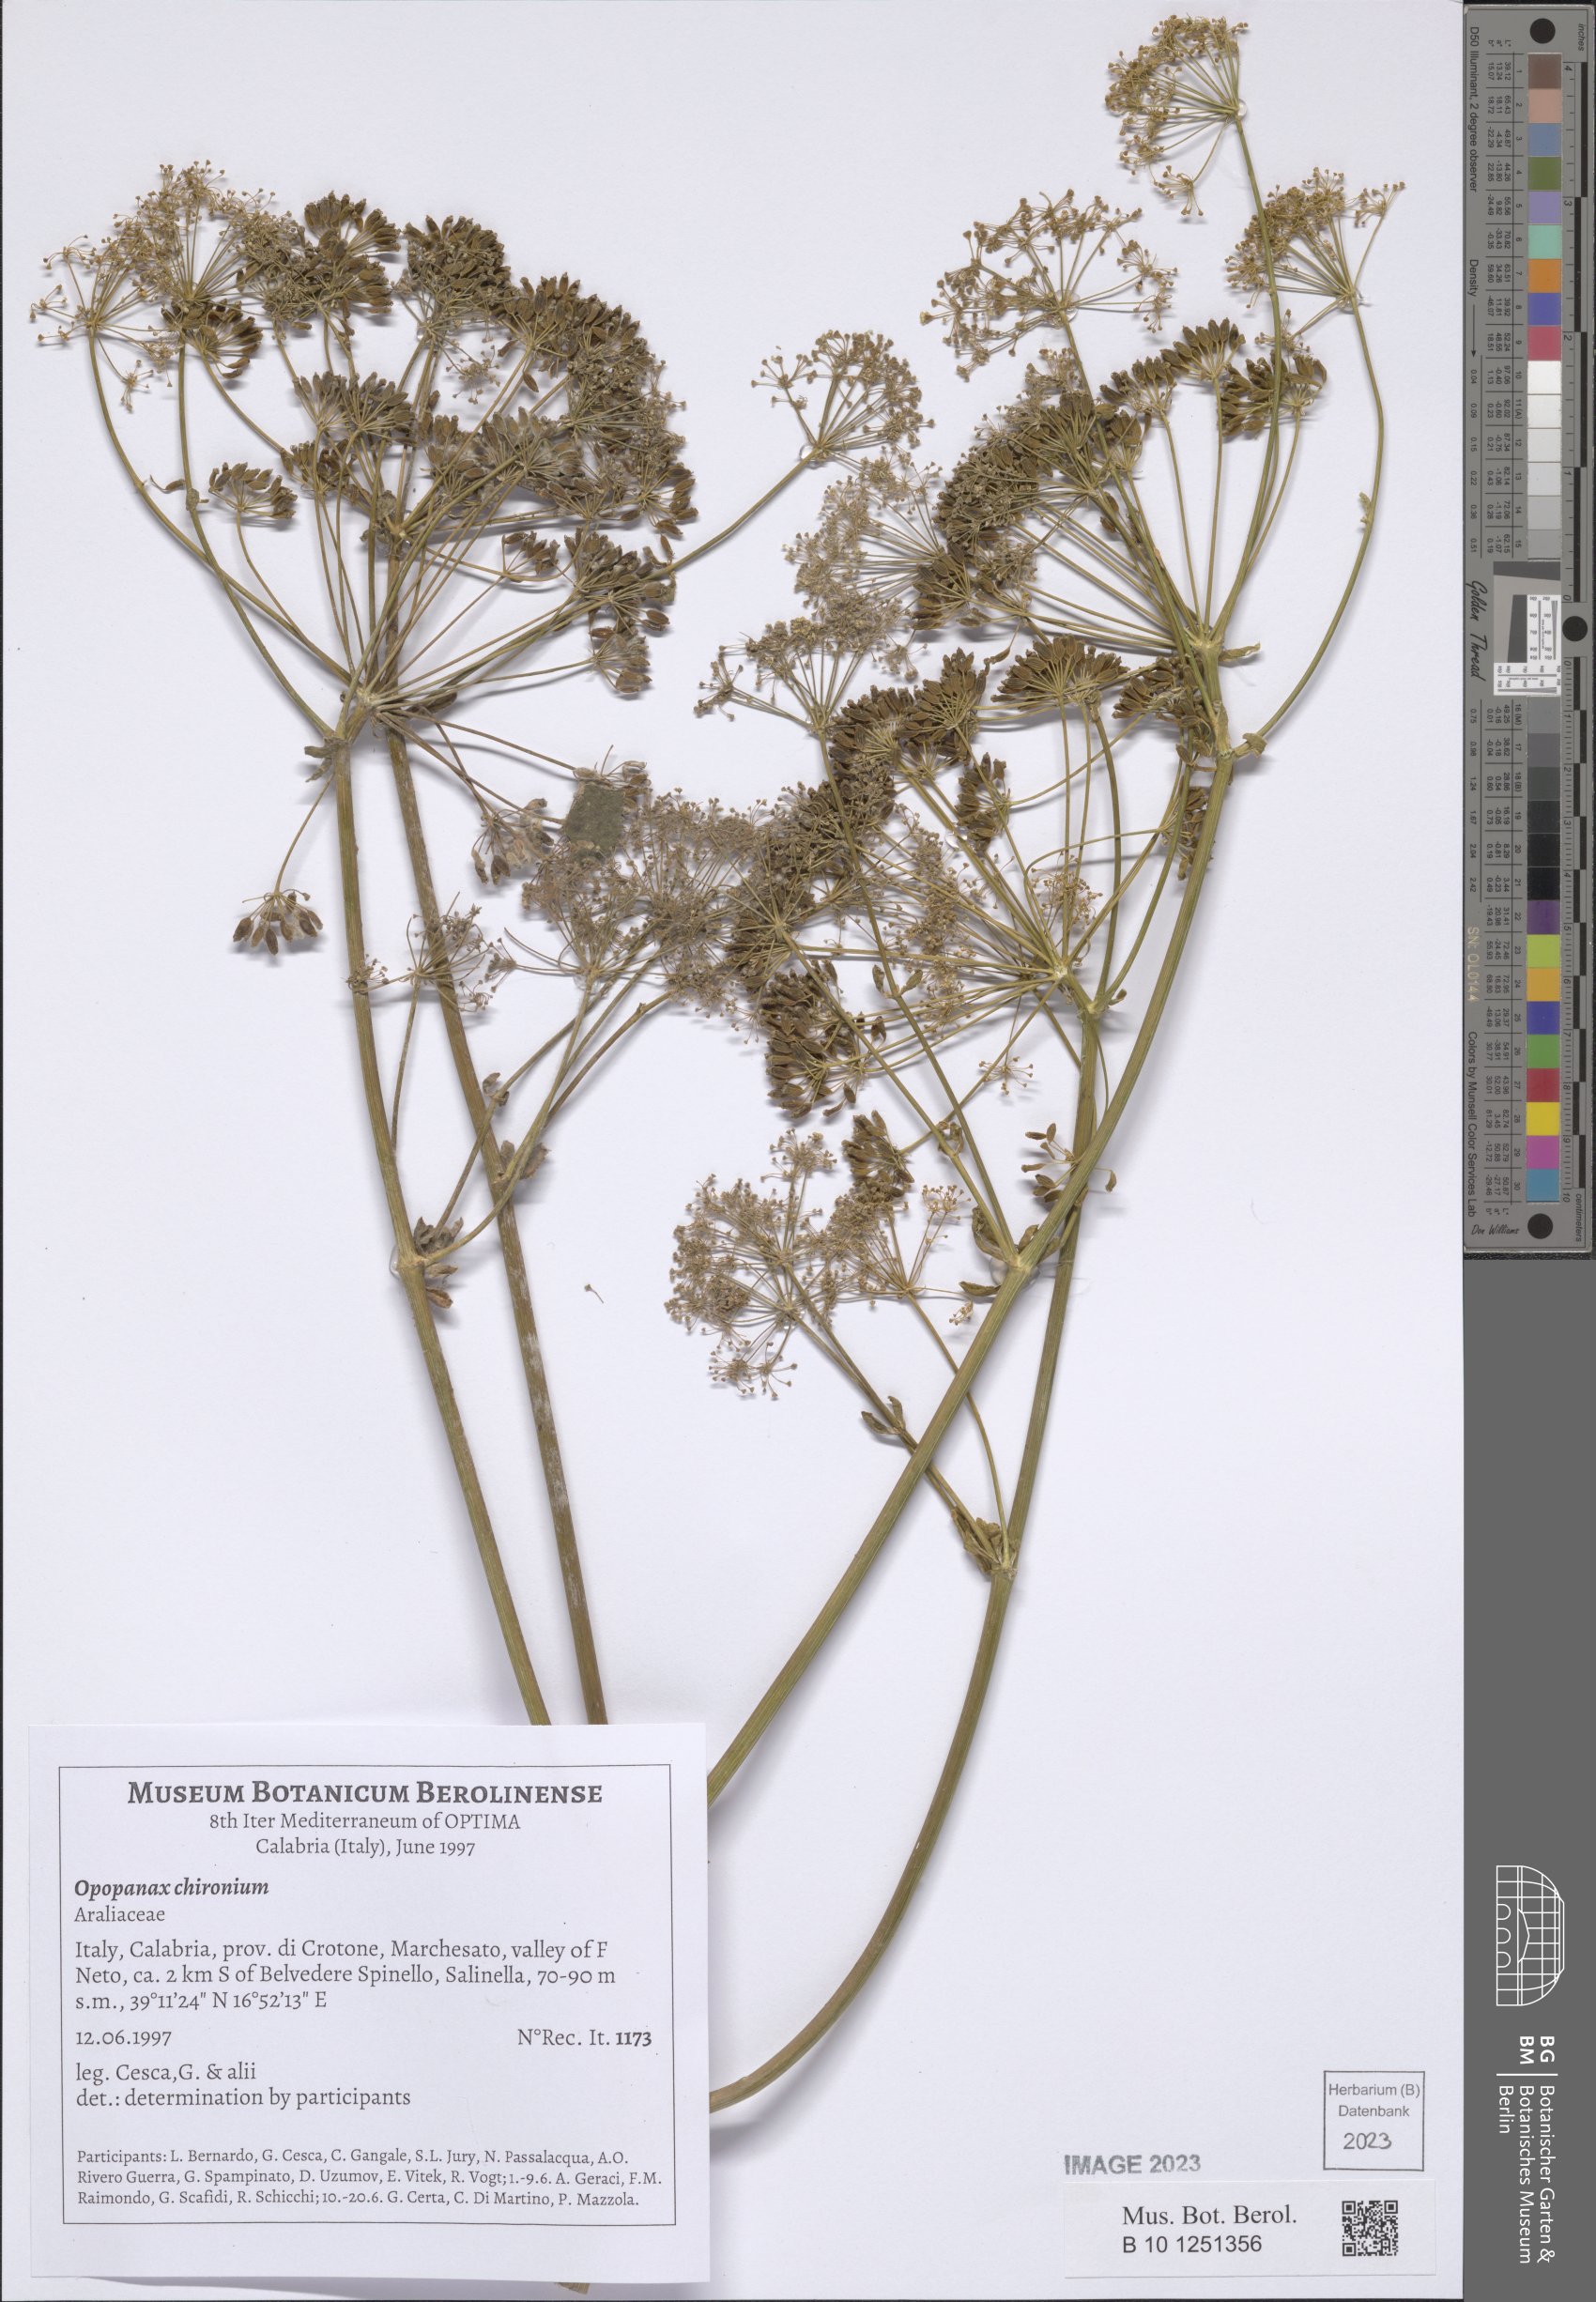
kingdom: Plantae
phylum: Tracheophyta
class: Magnoliopsida
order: Apiales
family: Apiaceae
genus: Opopanax
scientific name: Opopanax chironium
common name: Hercules-all-heal
